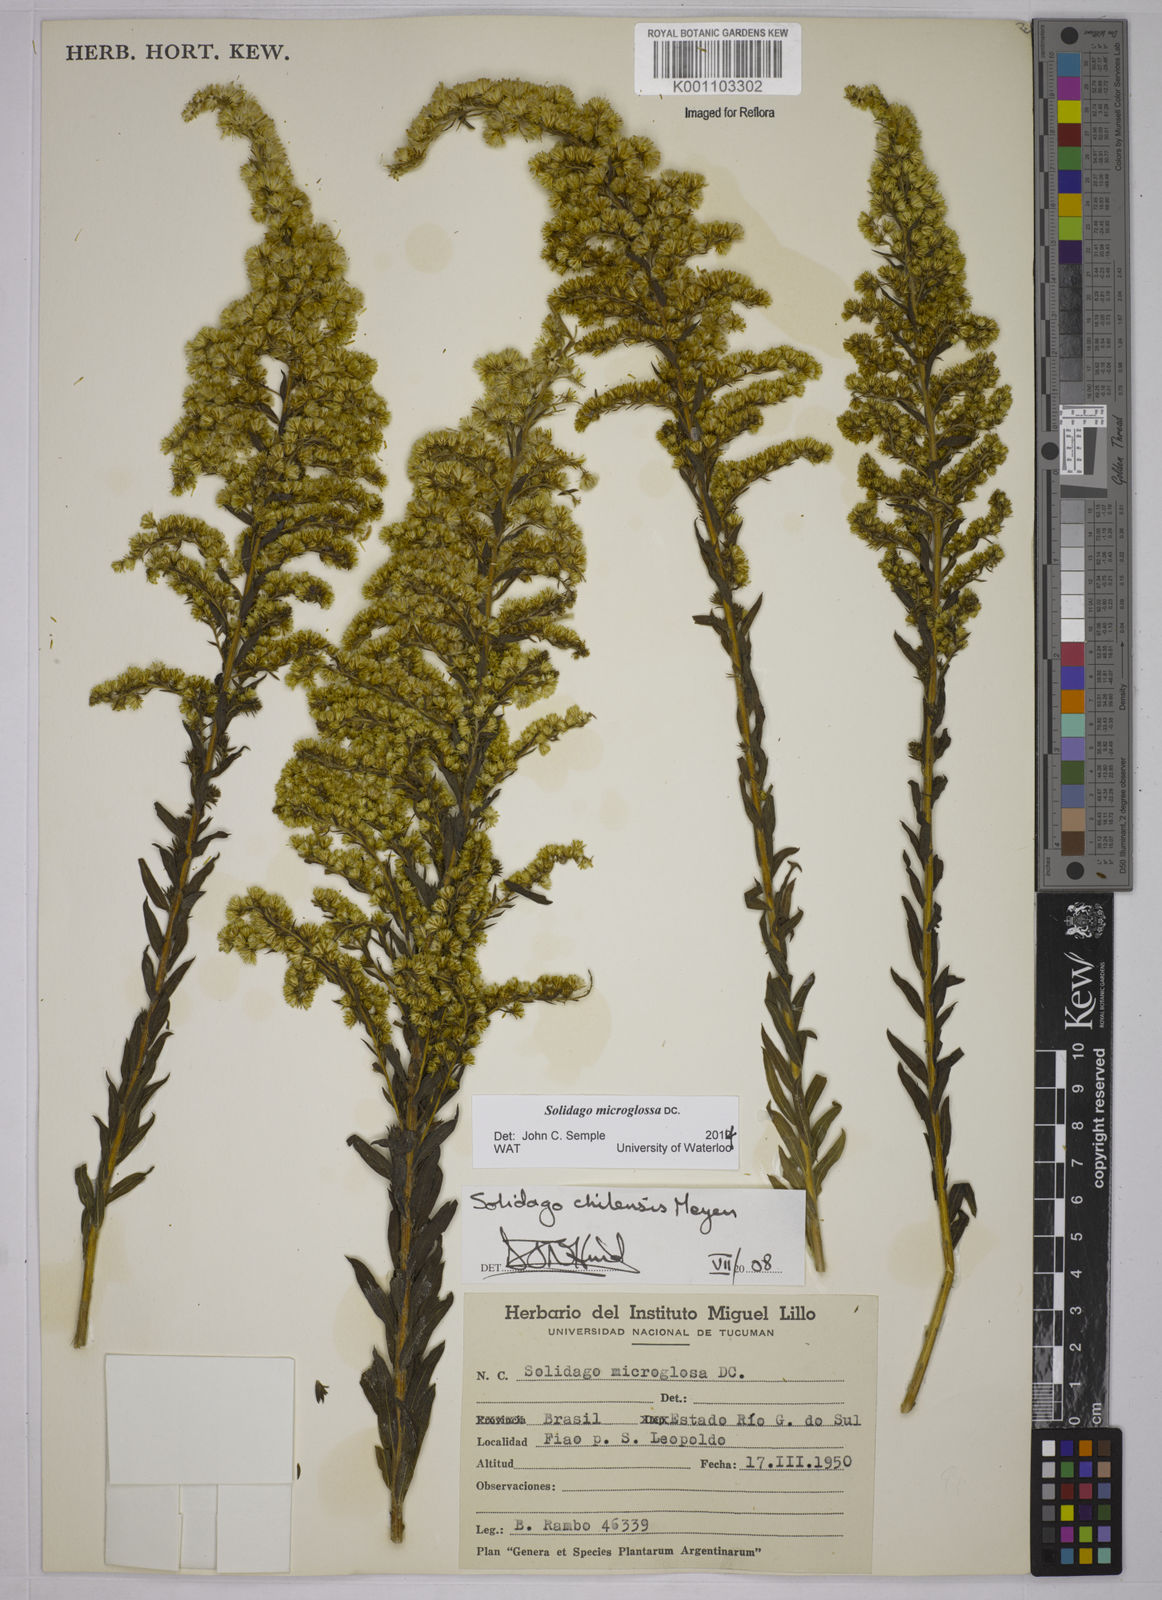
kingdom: Plantae
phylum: Tracheophyta
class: Magnoliopsida
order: Asterales
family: Asteraceae
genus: Solidago
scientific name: Solidago chilensis
